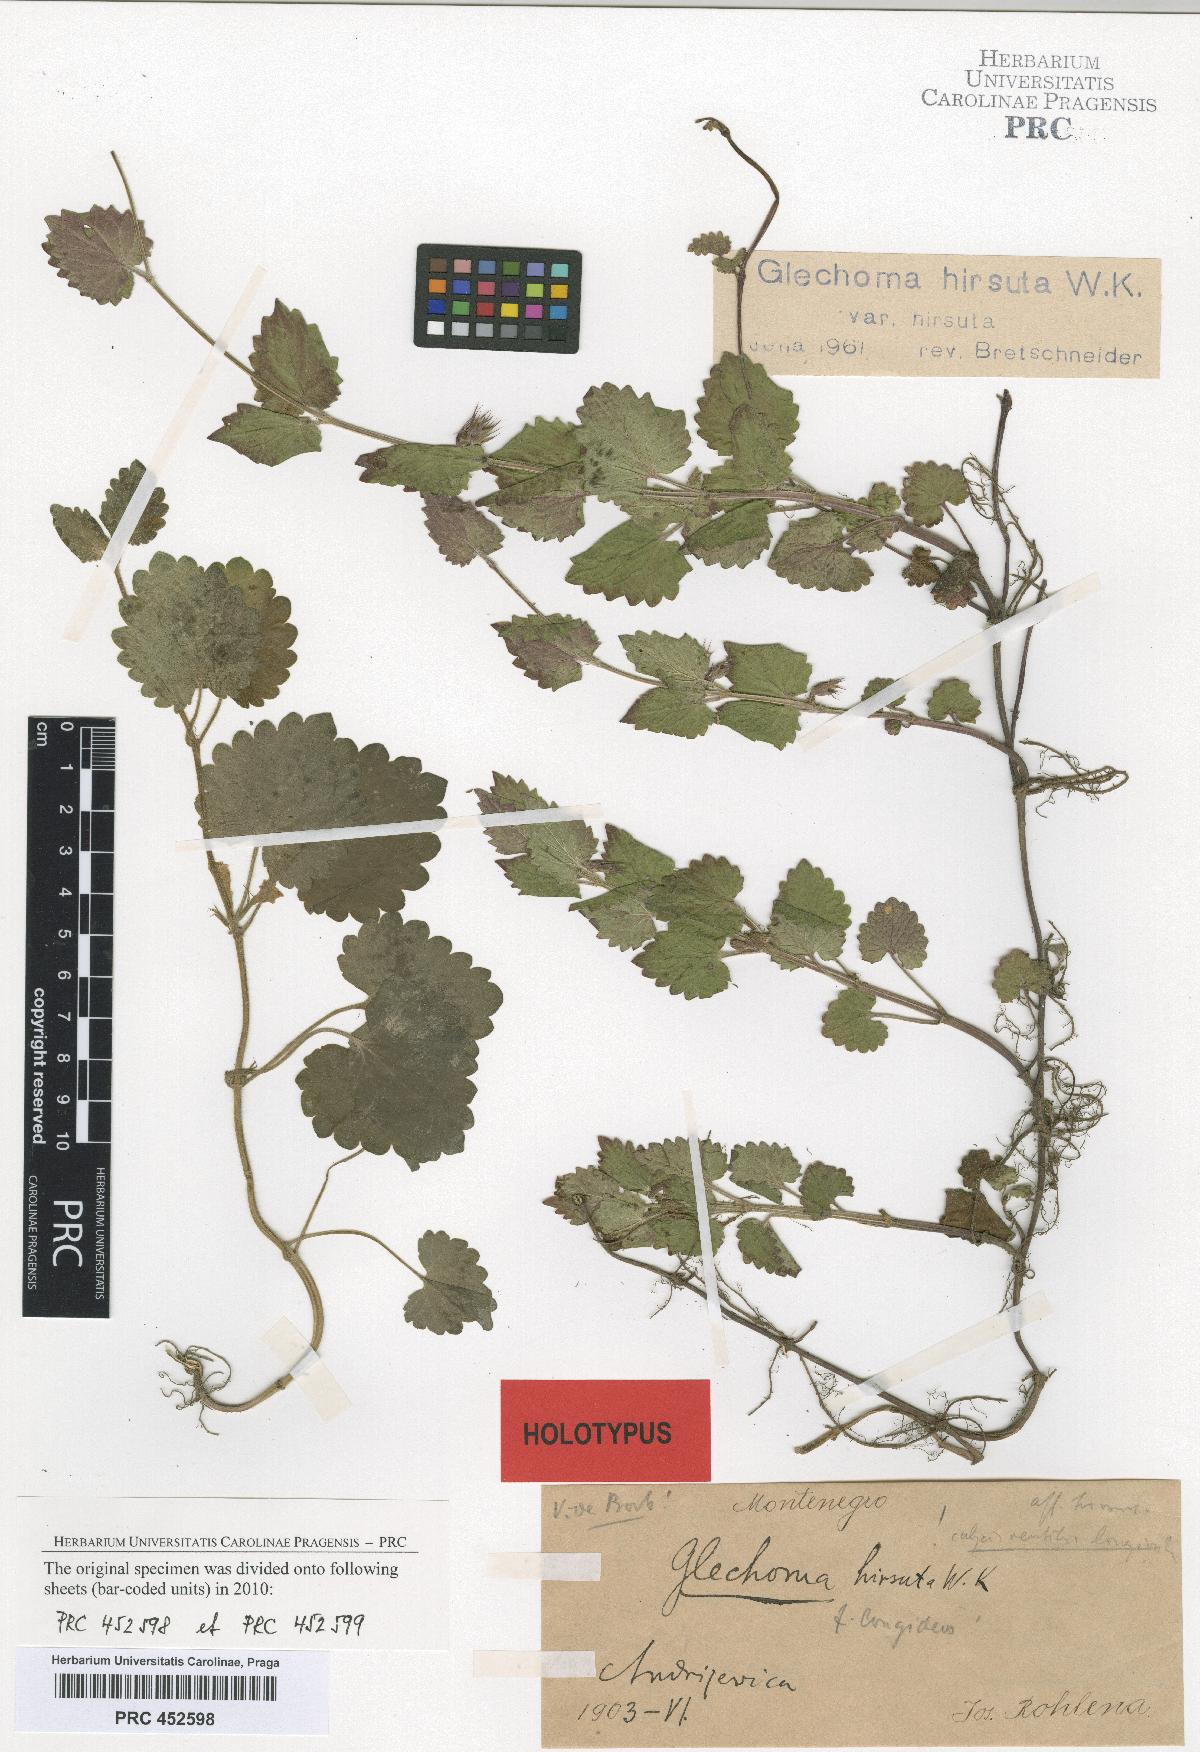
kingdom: Plantae
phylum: Tracheophyta
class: Magnoliopsida
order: Lamiales
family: Lamiaceae
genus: Glechoma
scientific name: Glechoma hirsuta
